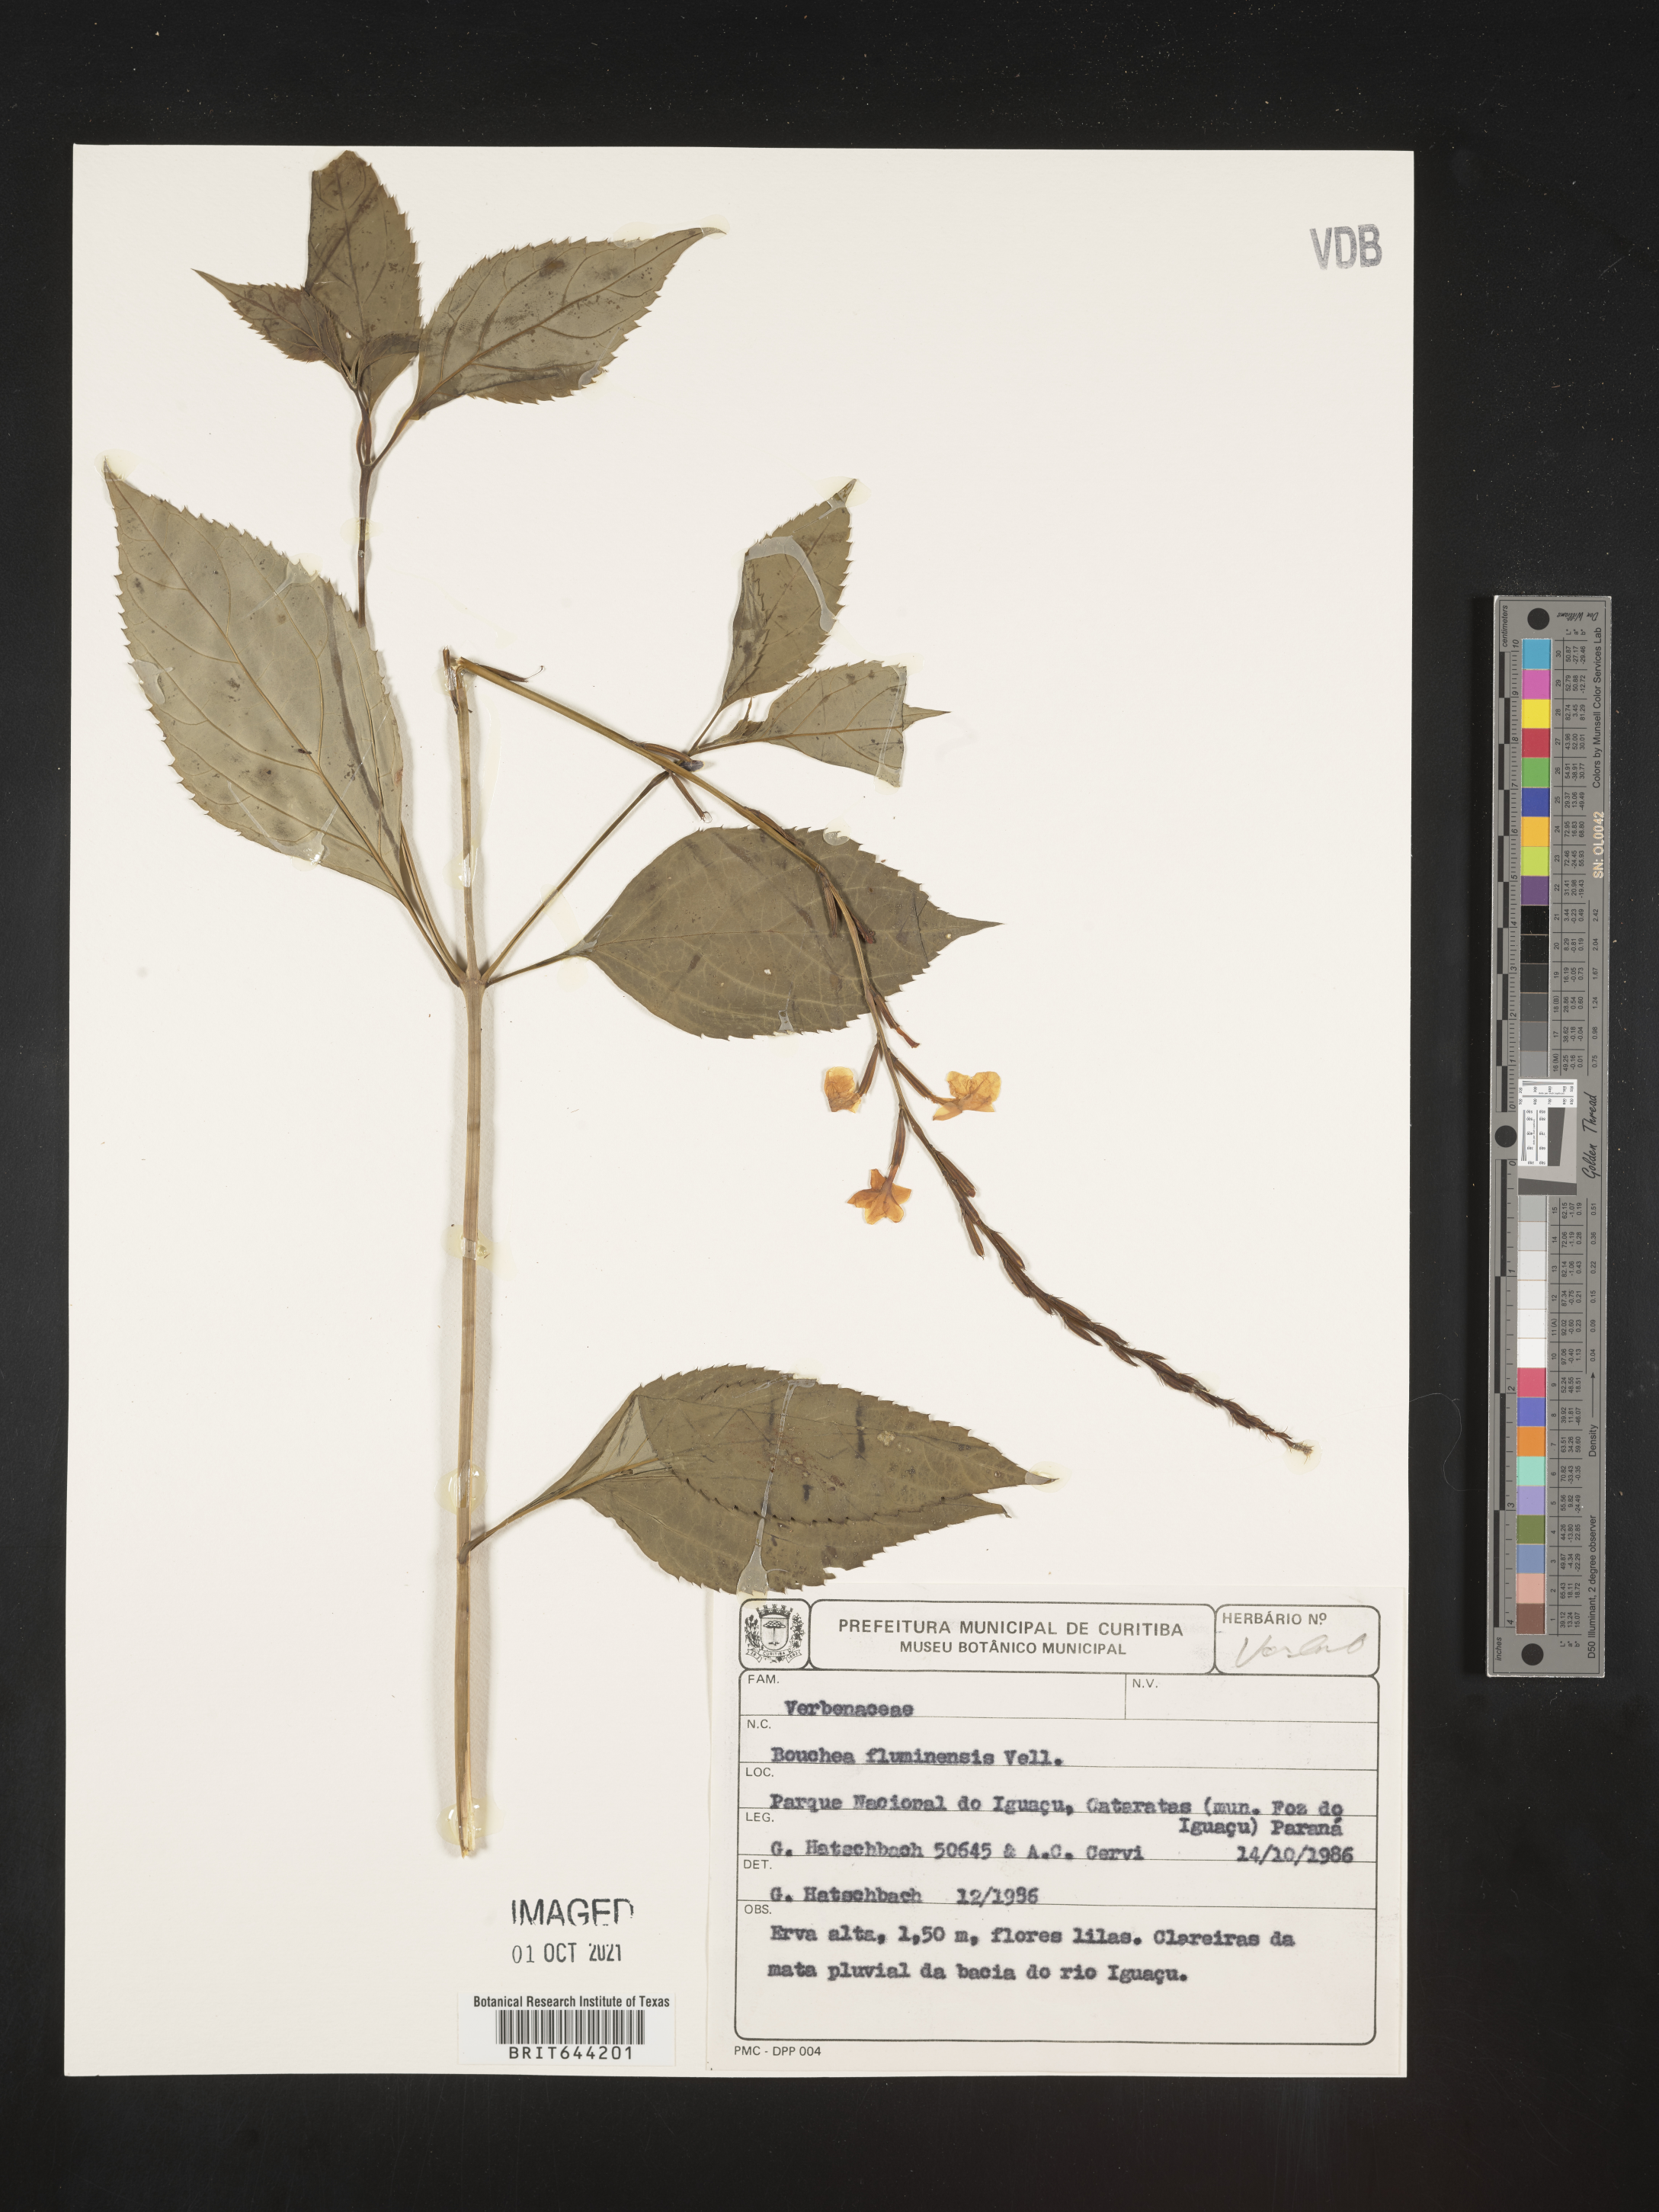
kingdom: Plantae
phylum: Tracheophyta
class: Magnoliopsida
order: Lamiales
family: Verbenaceae
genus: Bouchea
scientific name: Bouchea
